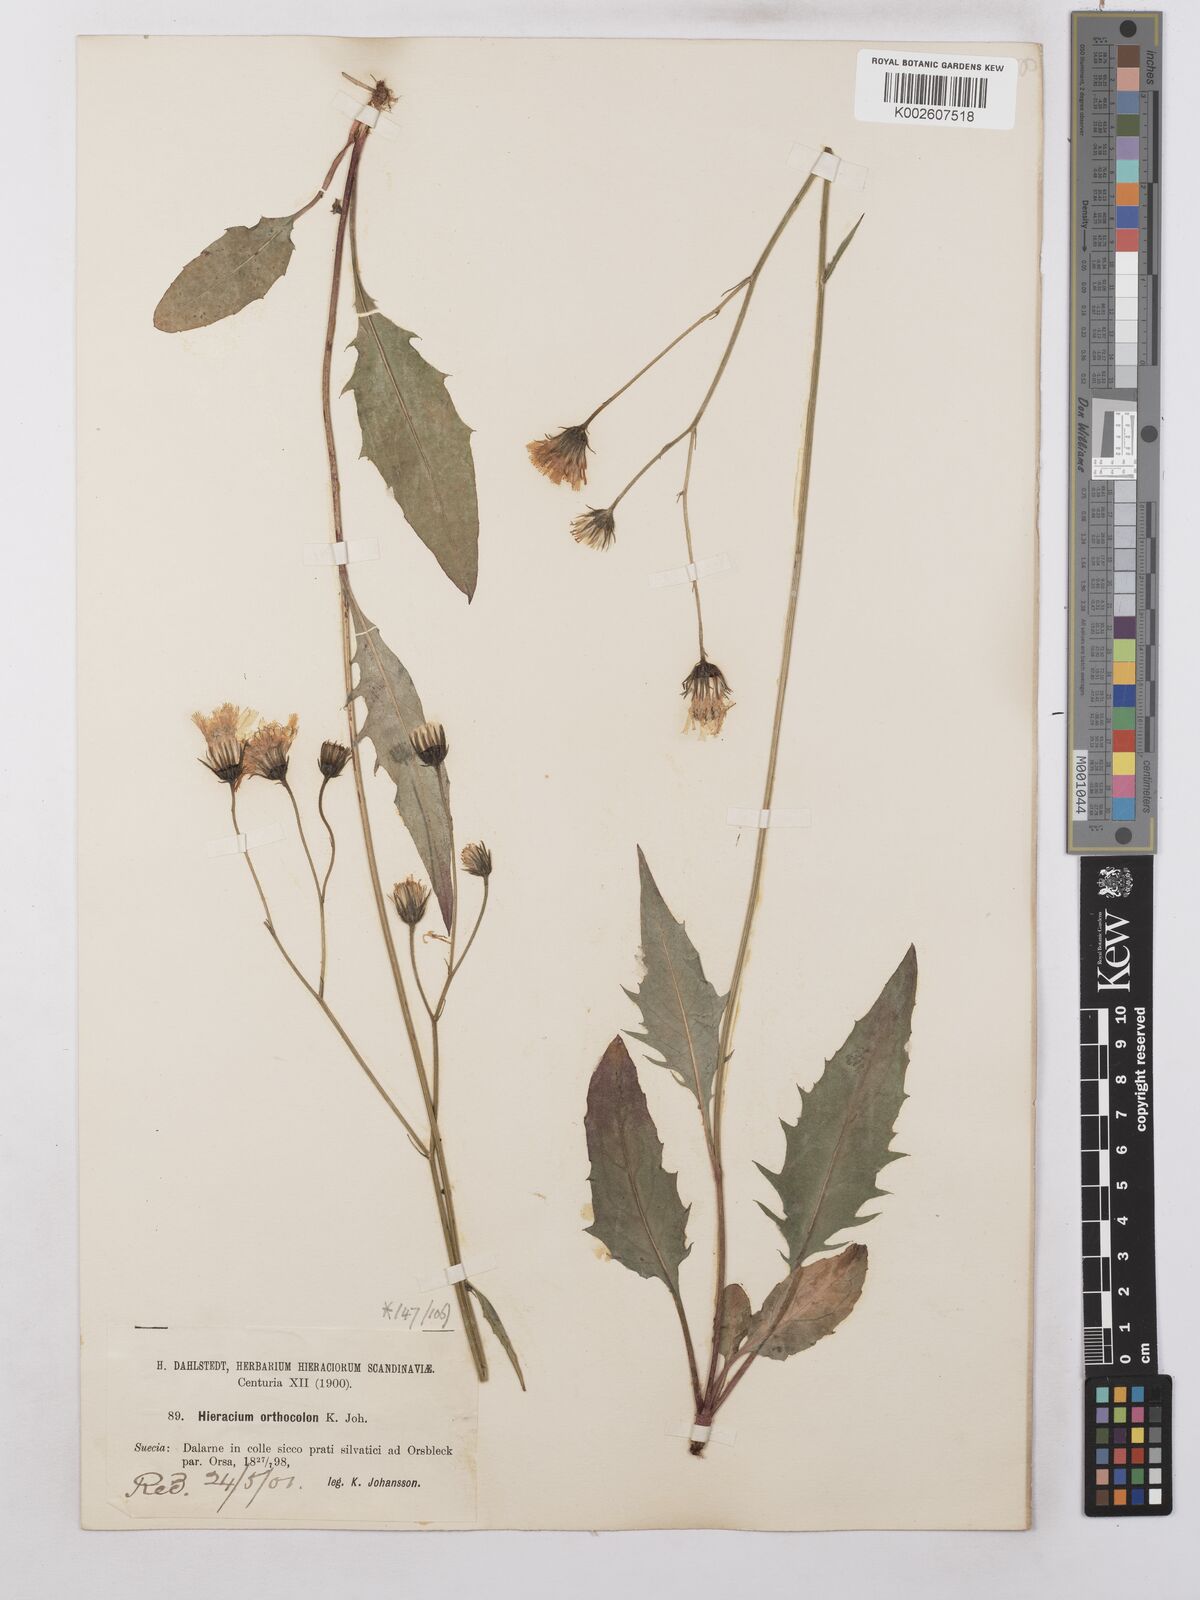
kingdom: Plantae
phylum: Tracheophyta
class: Magnoliopsida
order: Asterales
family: Asteraceae
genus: Hieracium
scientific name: Hieracium orthocolon
